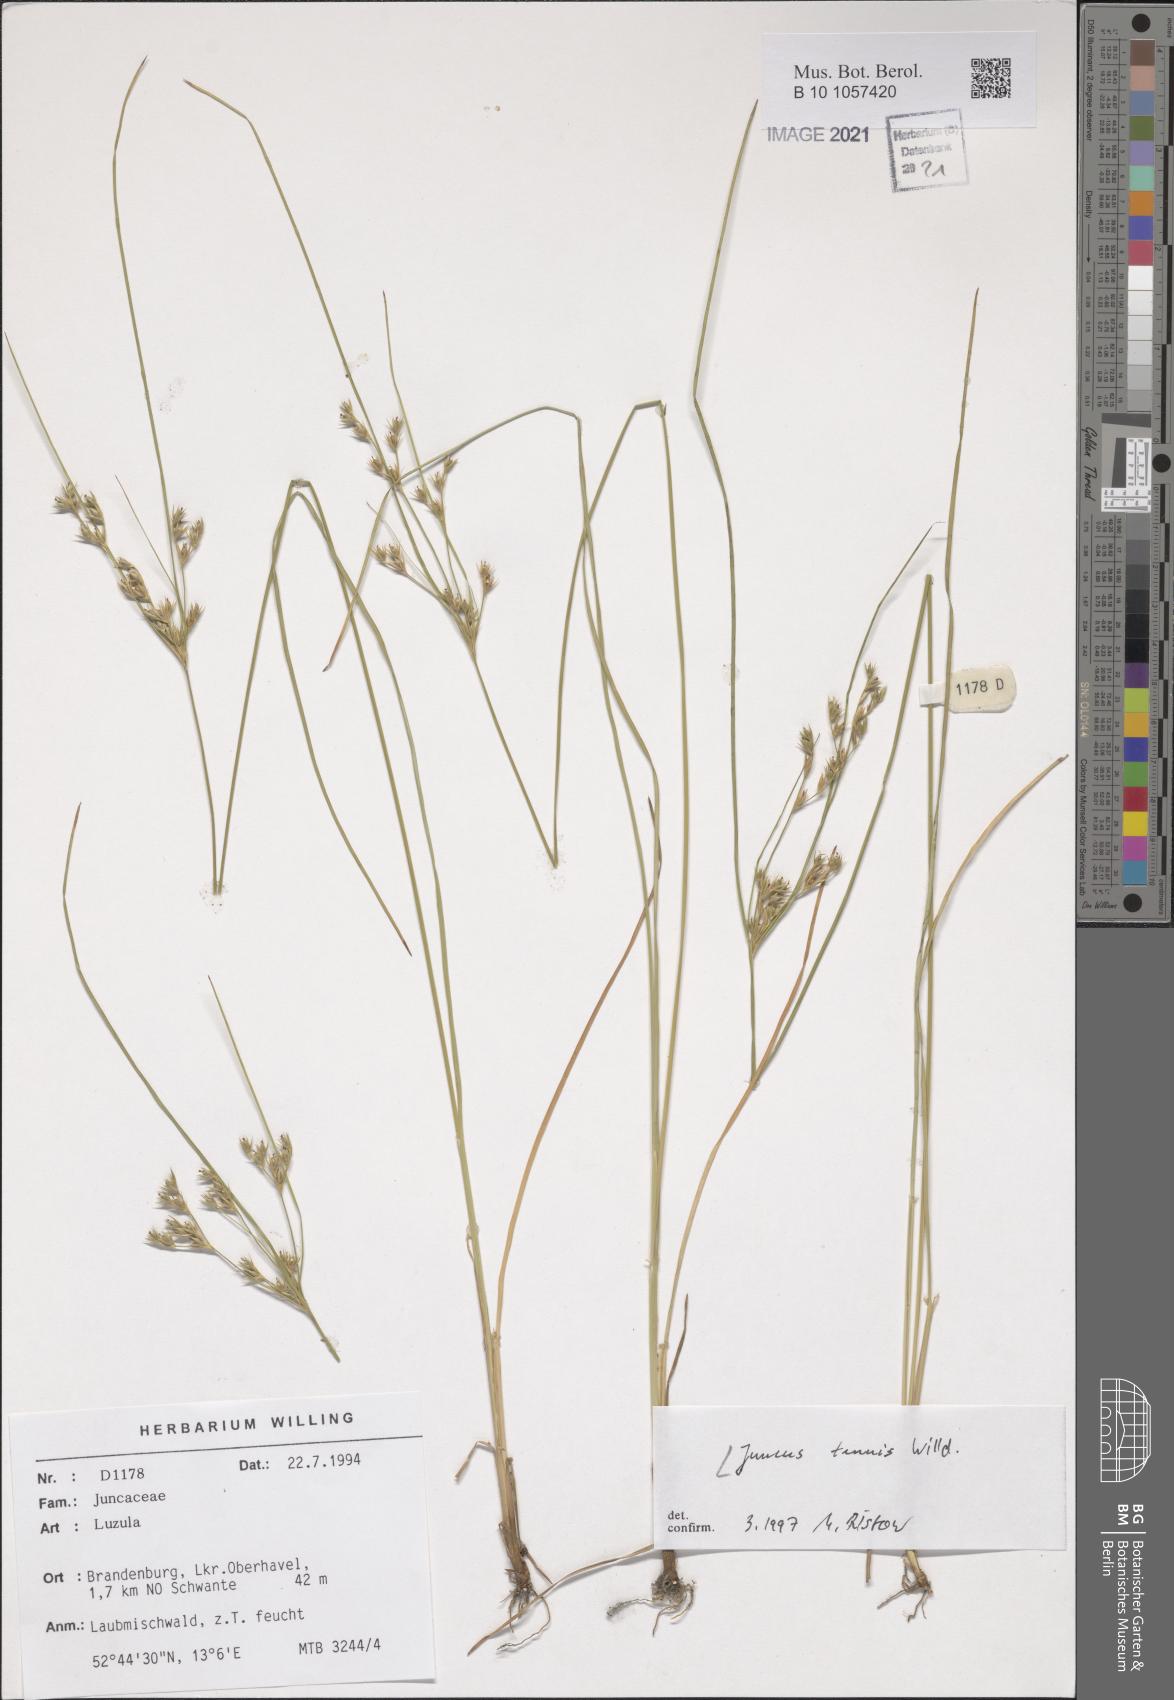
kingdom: Plantae
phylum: Tracheophyta
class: Liliopsida
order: Poales
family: Juncaceae
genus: Juncus
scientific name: Juncus tenuis
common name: Slender rush
